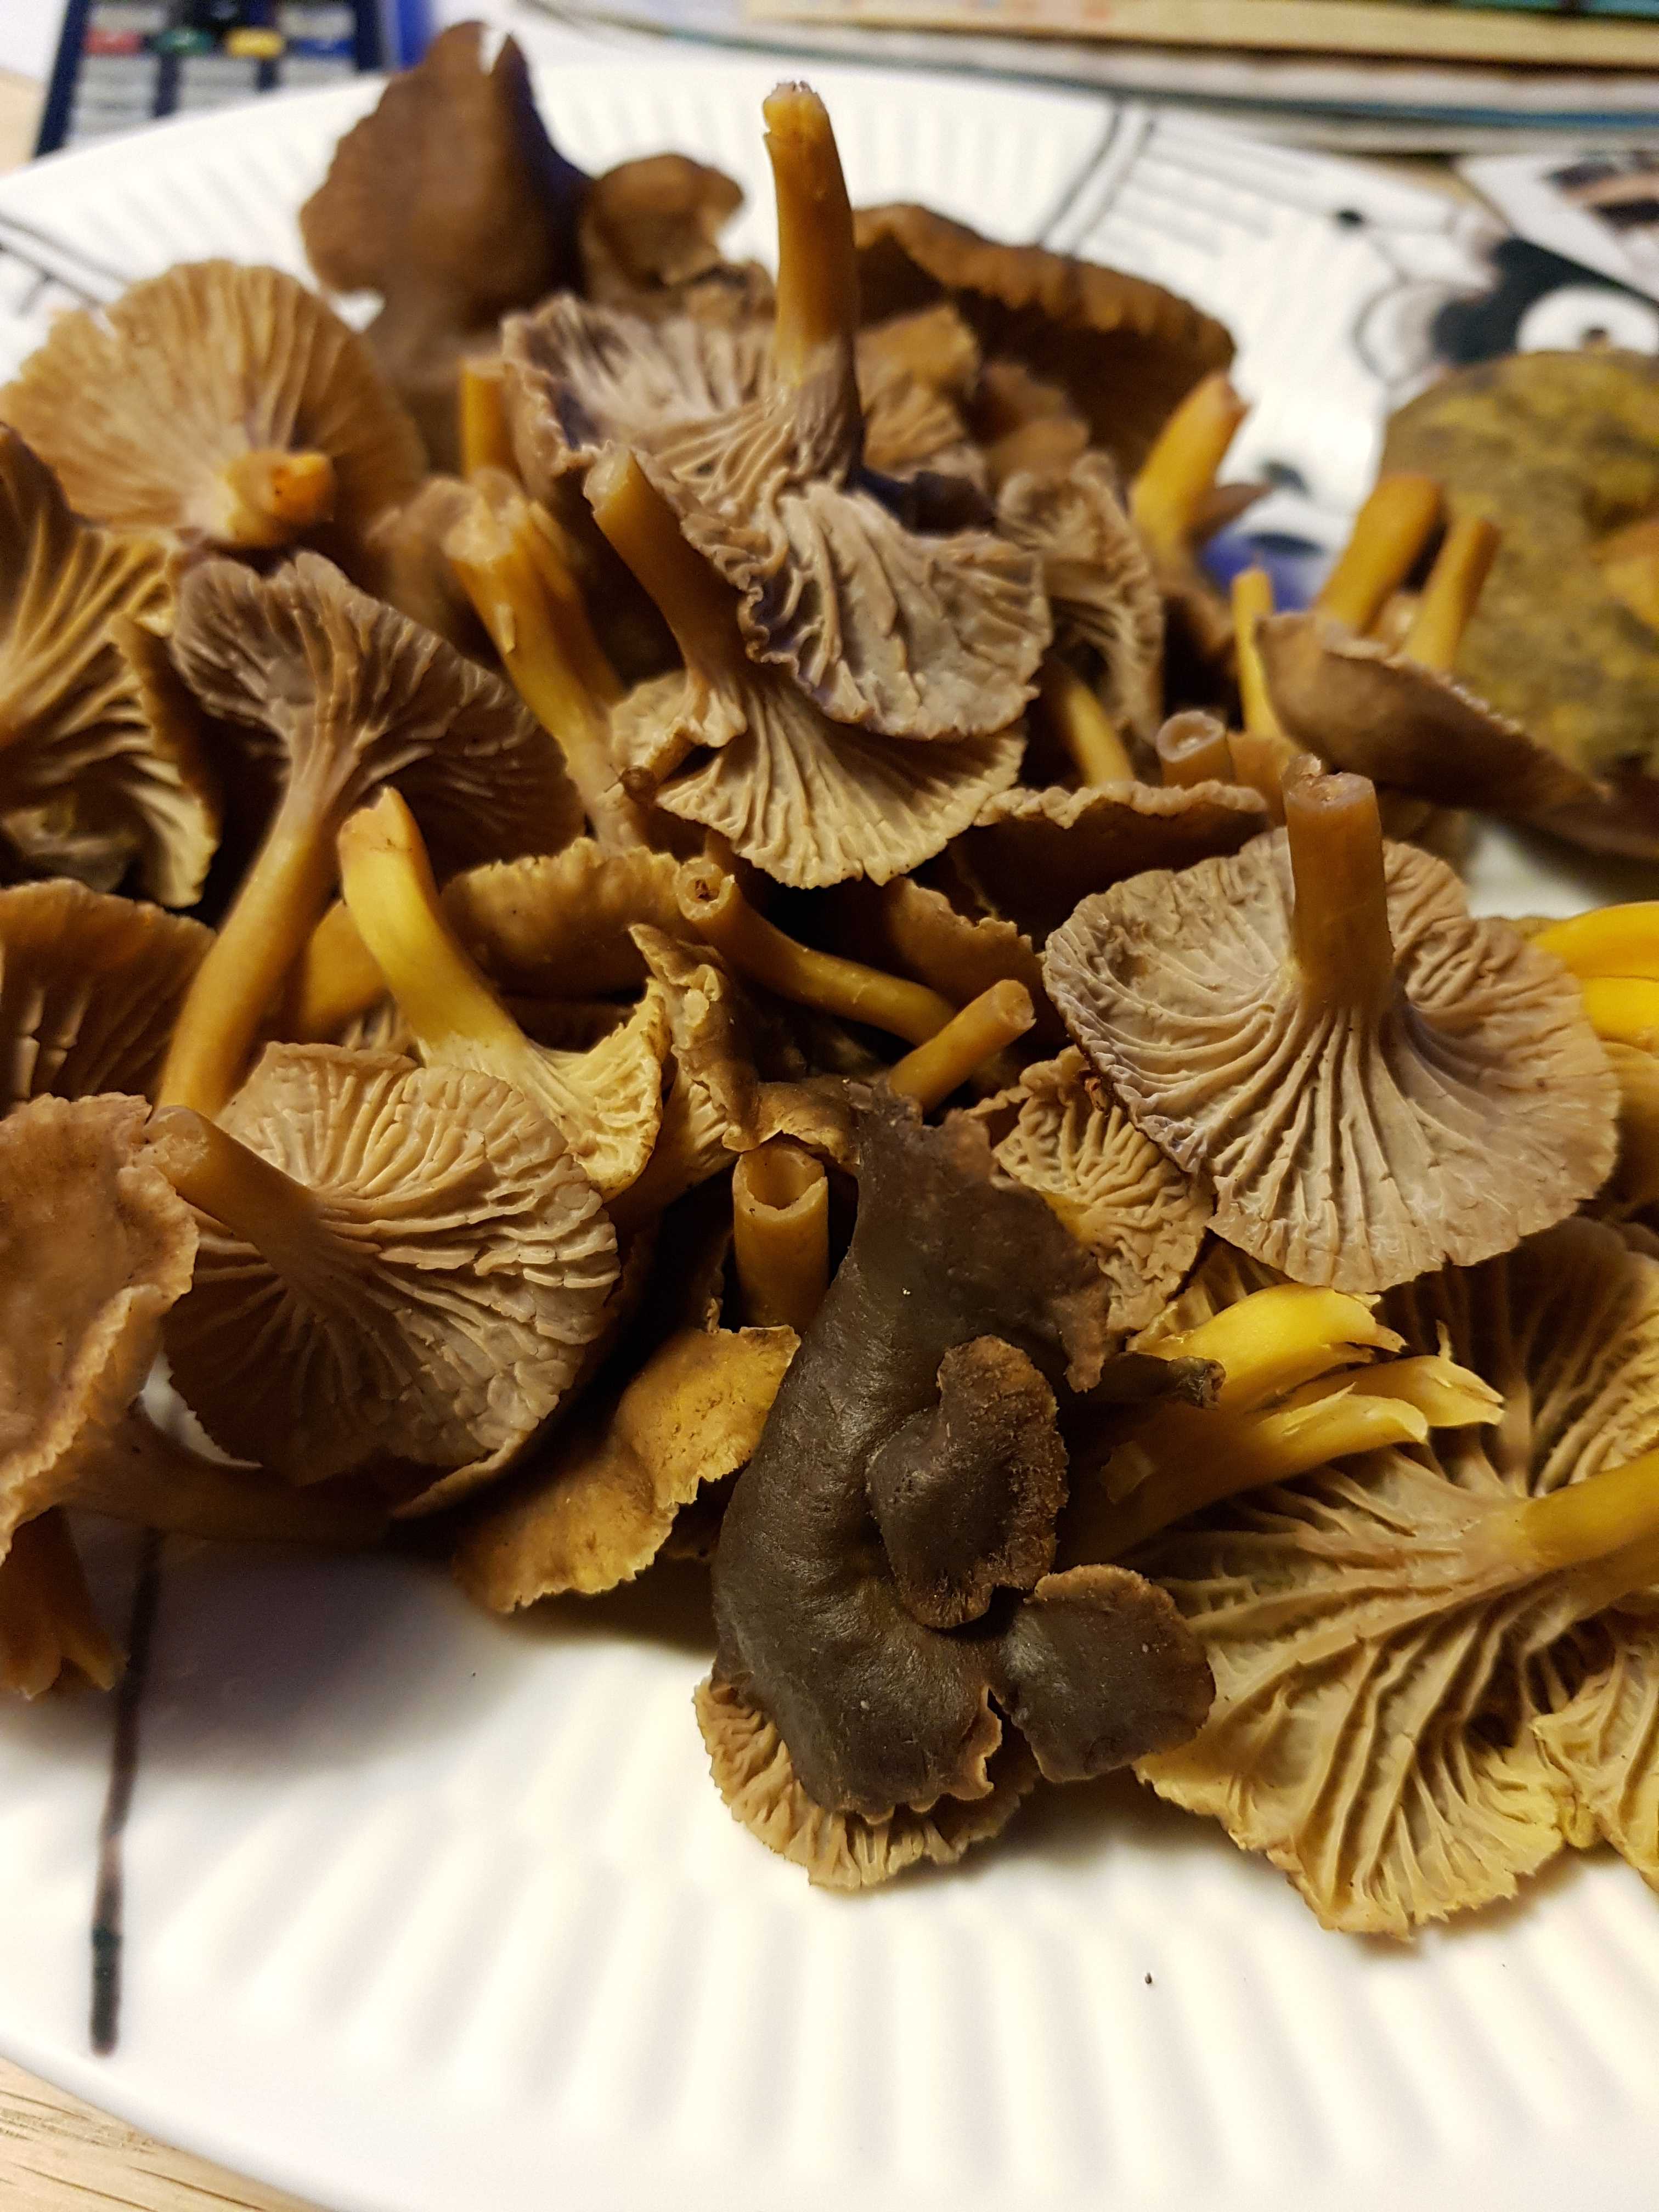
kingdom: Fungi
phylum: Basidiomycota
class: Agaricomycetes
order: Cantharellales
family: Hydnaceae
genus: Craterellus
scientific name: Craterellus tubaeformis
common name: tragt-kantarel
